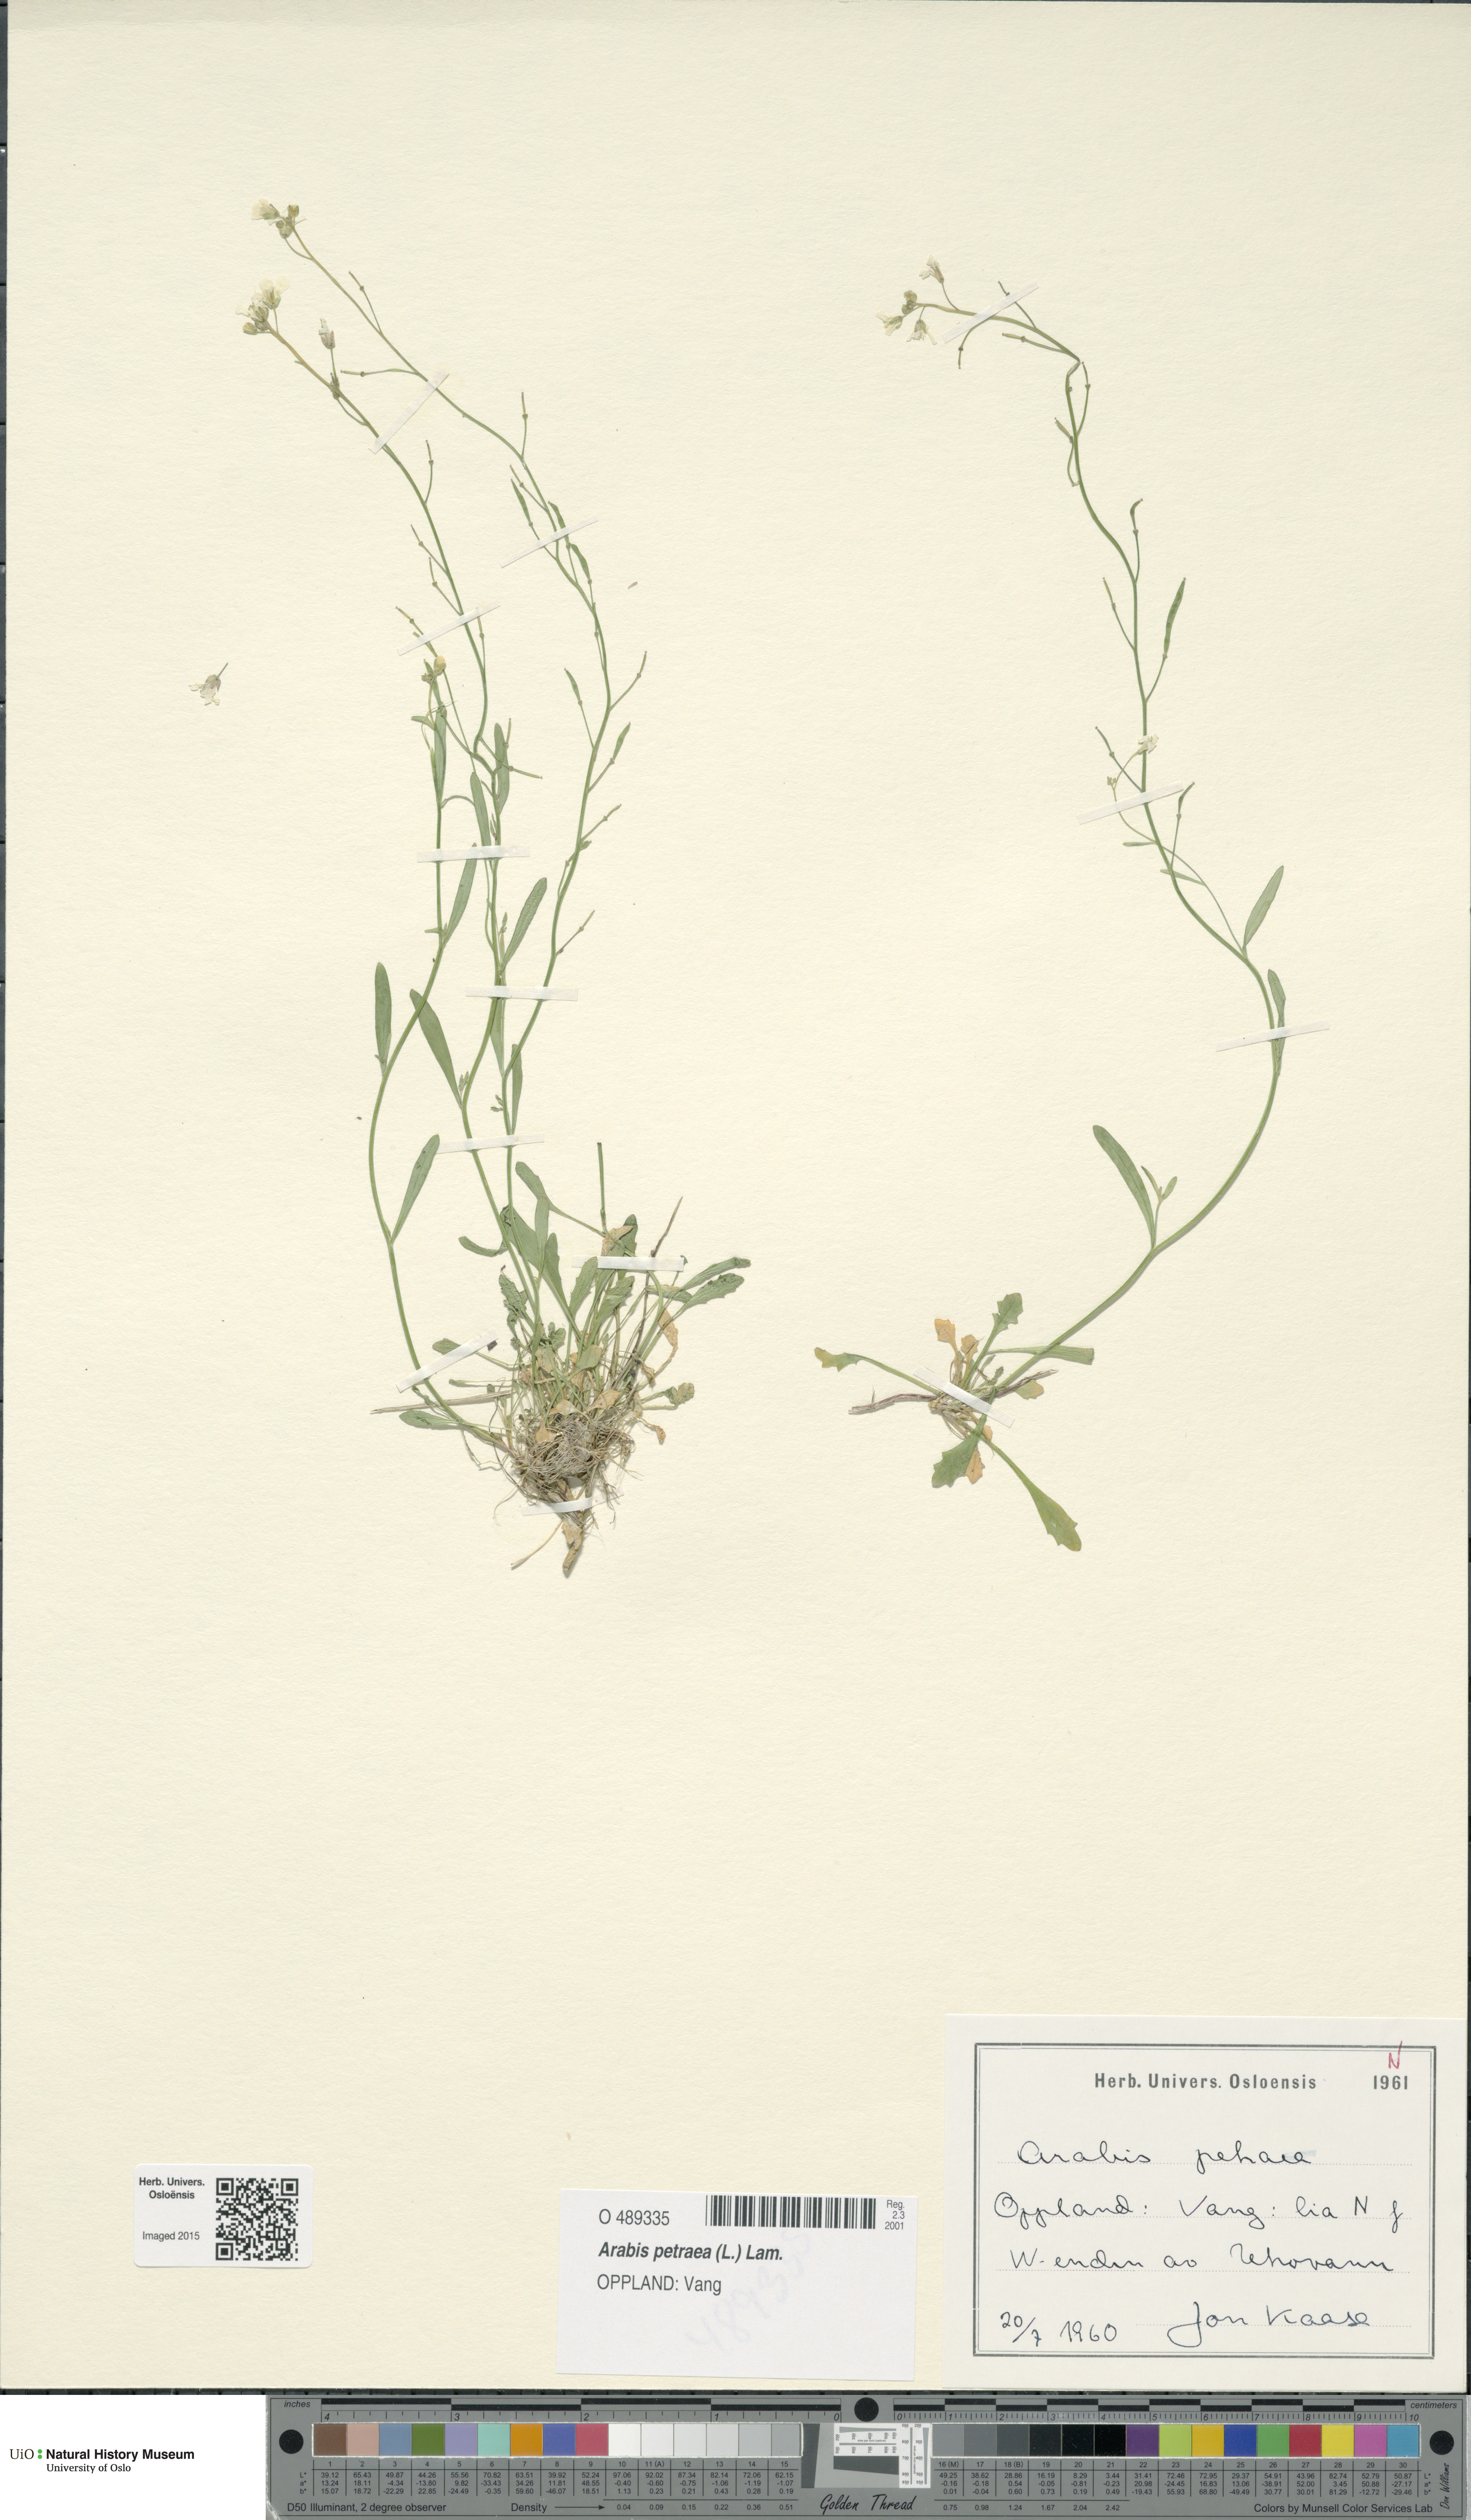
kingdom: Plantae
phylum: Tracheophyta
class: Magnoliopsida
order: Brassicales
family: Brassicaceae
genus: Arabidopsis
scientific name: Arabidopsis petraea
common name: Northern rock-cress
